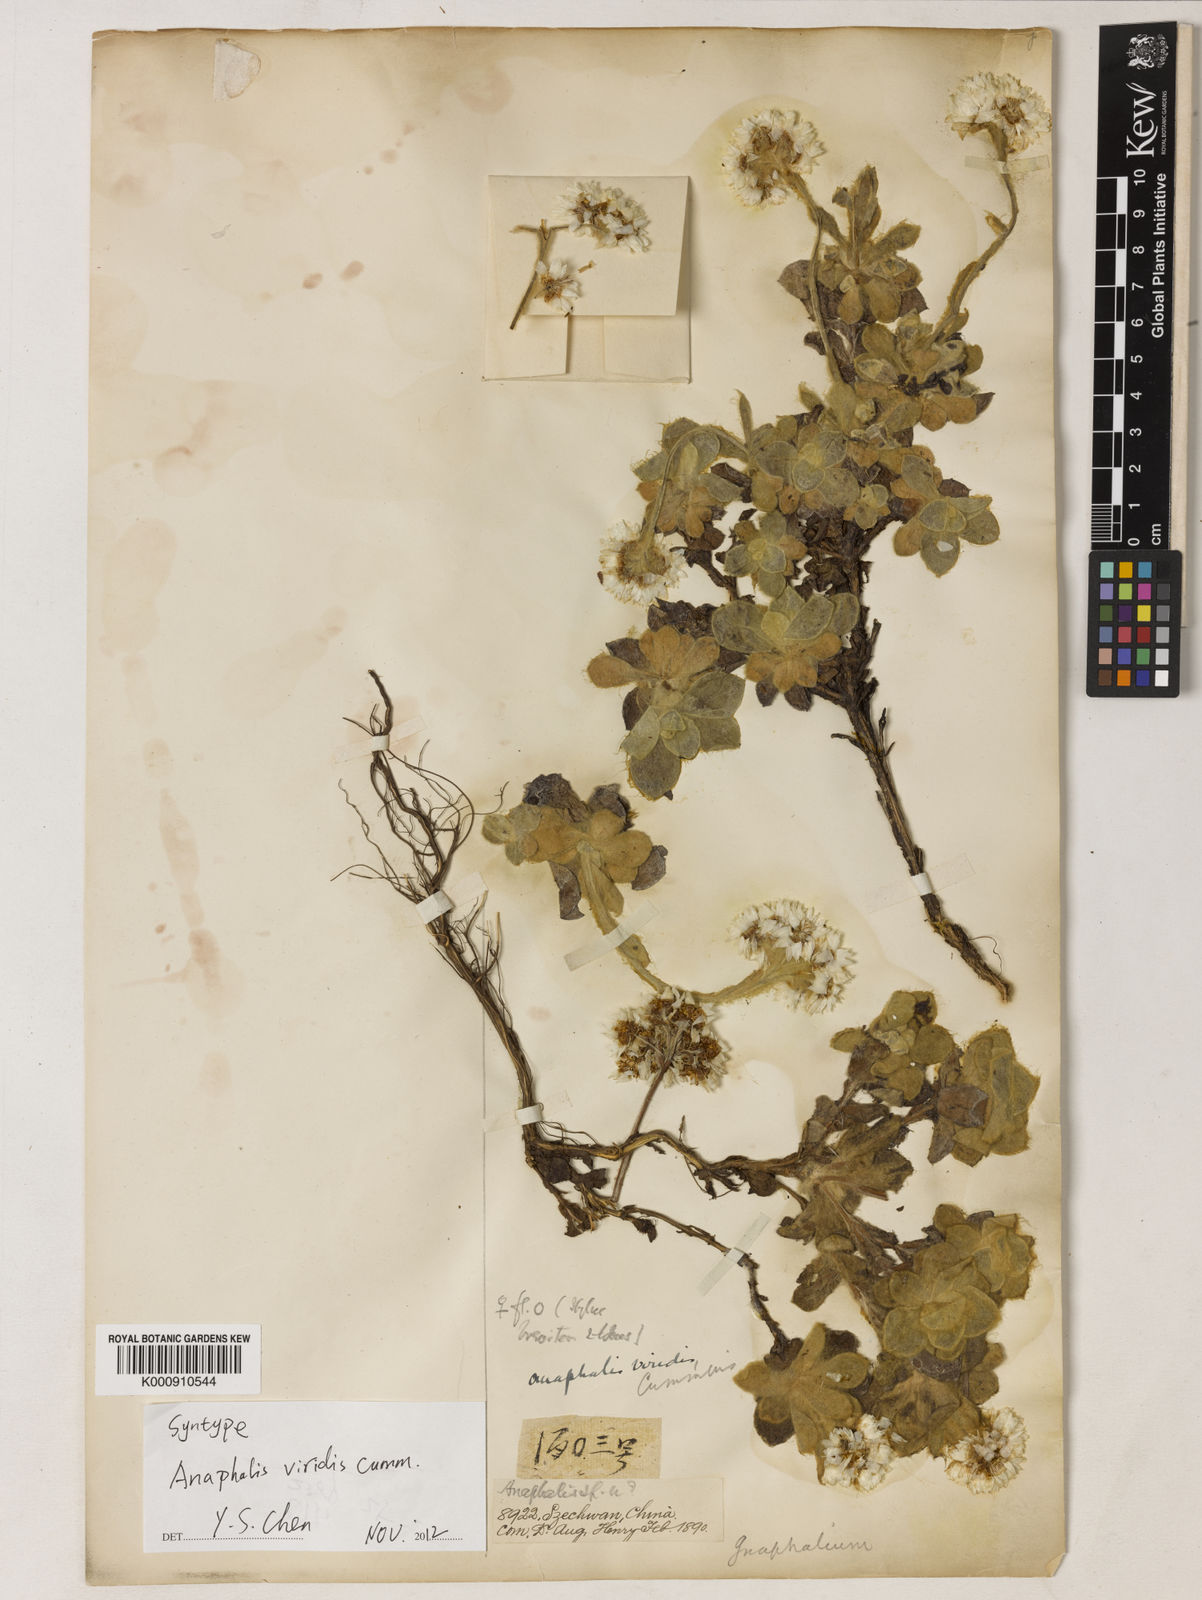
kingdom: Plantae
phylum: Tracheophyta
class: Magnoliopsida
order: Asterales
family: Asteraceae
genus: Anaphalis
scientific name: Anaphalis viridis
